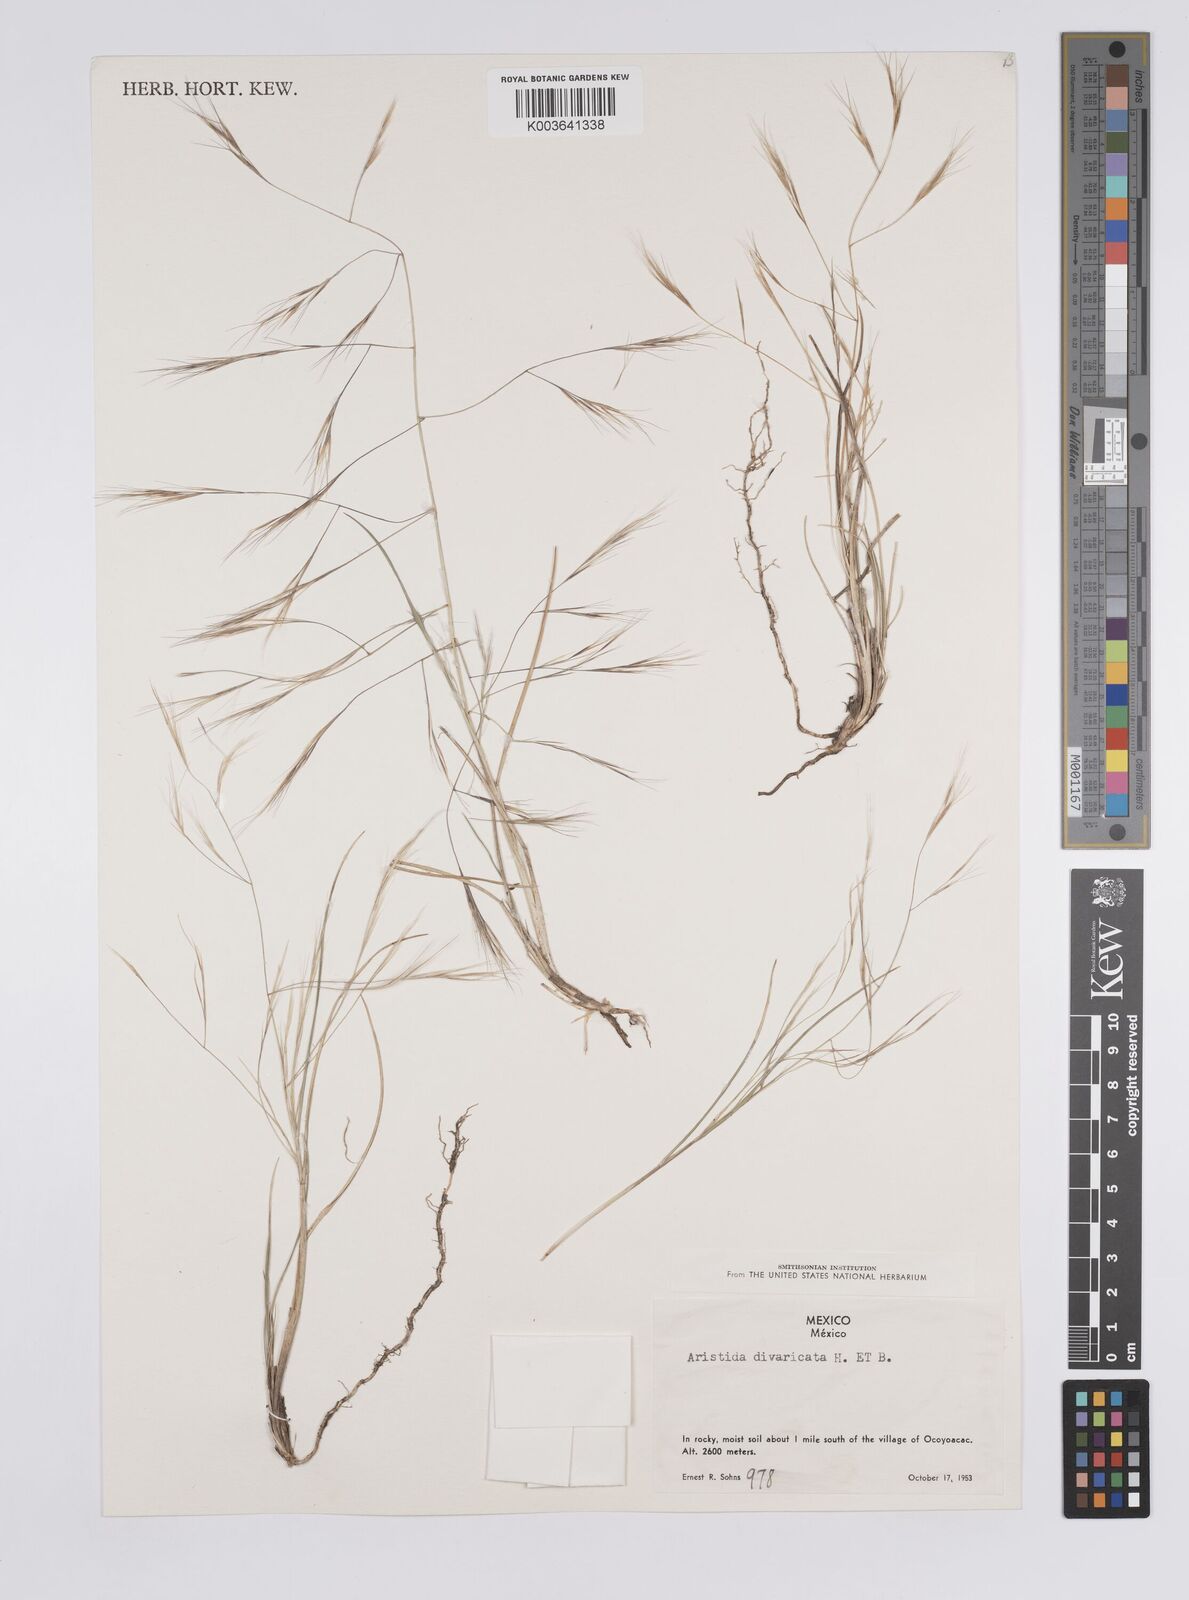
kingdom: Plantae
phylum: Tracheophyta
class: Liliopsida
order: Poales
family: Poaceae
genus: Aristida
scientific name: Aristida divaricata
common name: Poverty grass
